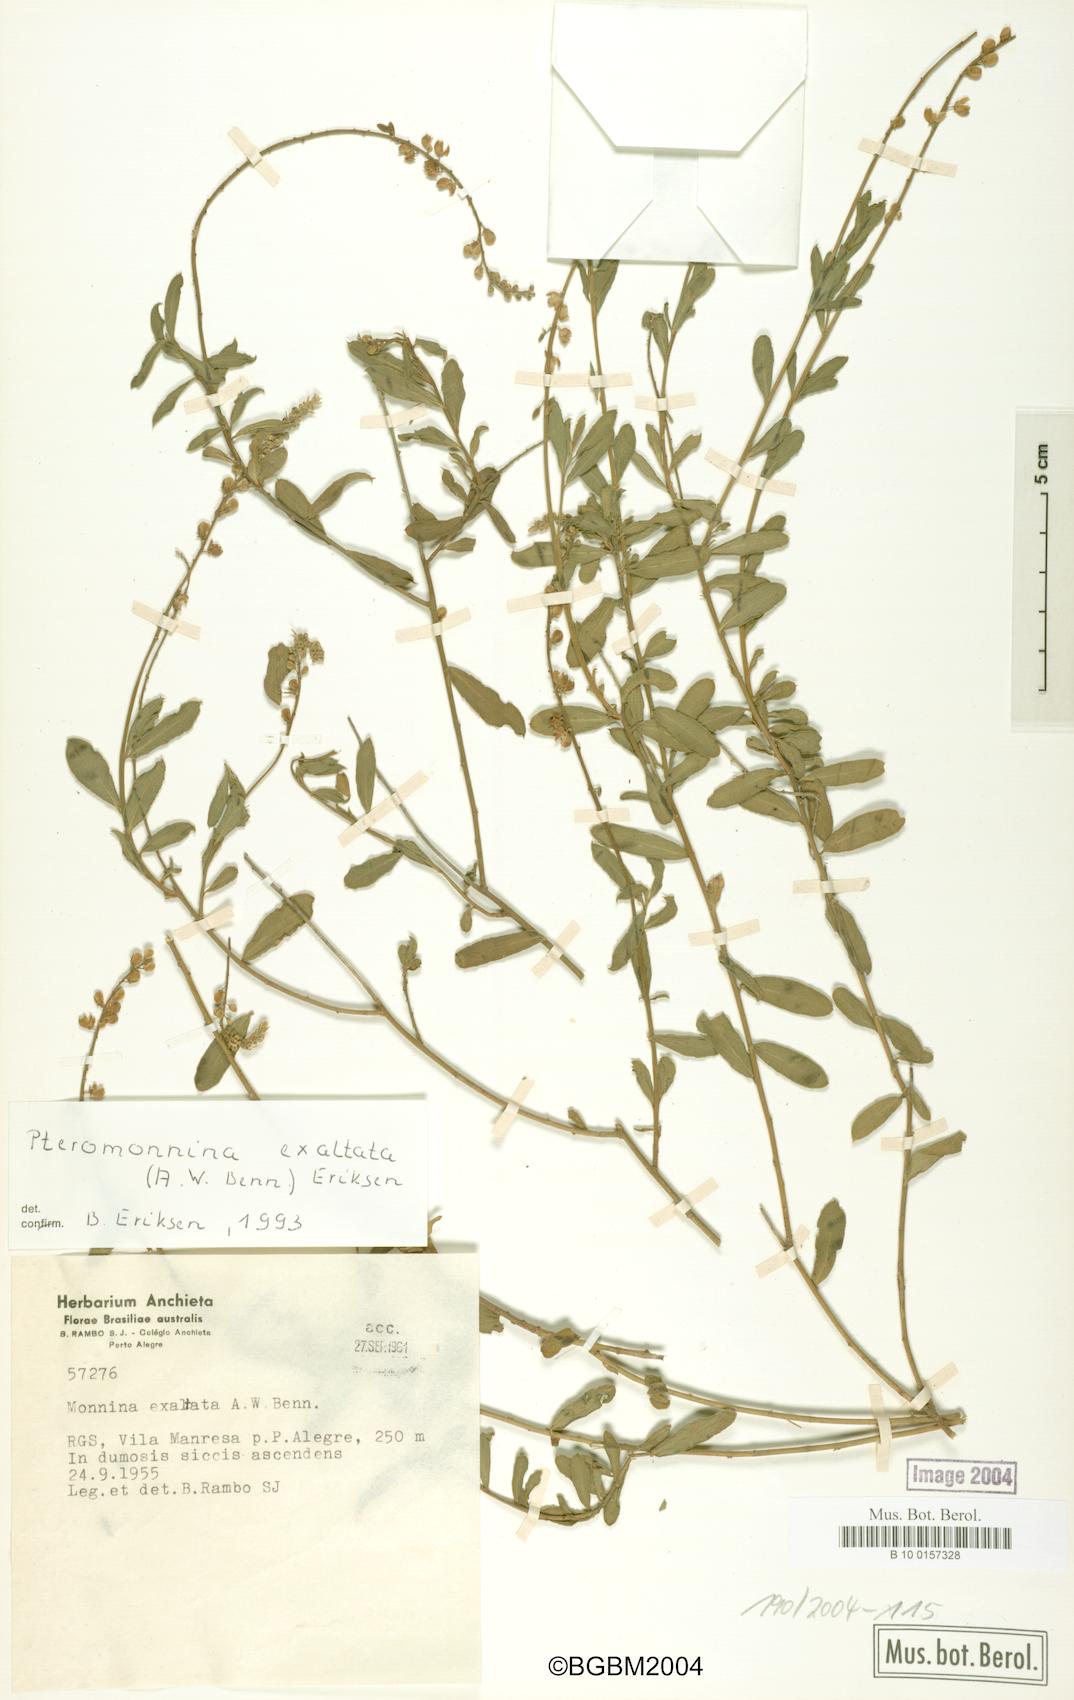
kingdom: Plantae
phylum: Tracheophyta
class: Magnoliopsida
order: Fabales
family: Polygalaceae
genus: Monnina
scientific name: Monnina exalata
